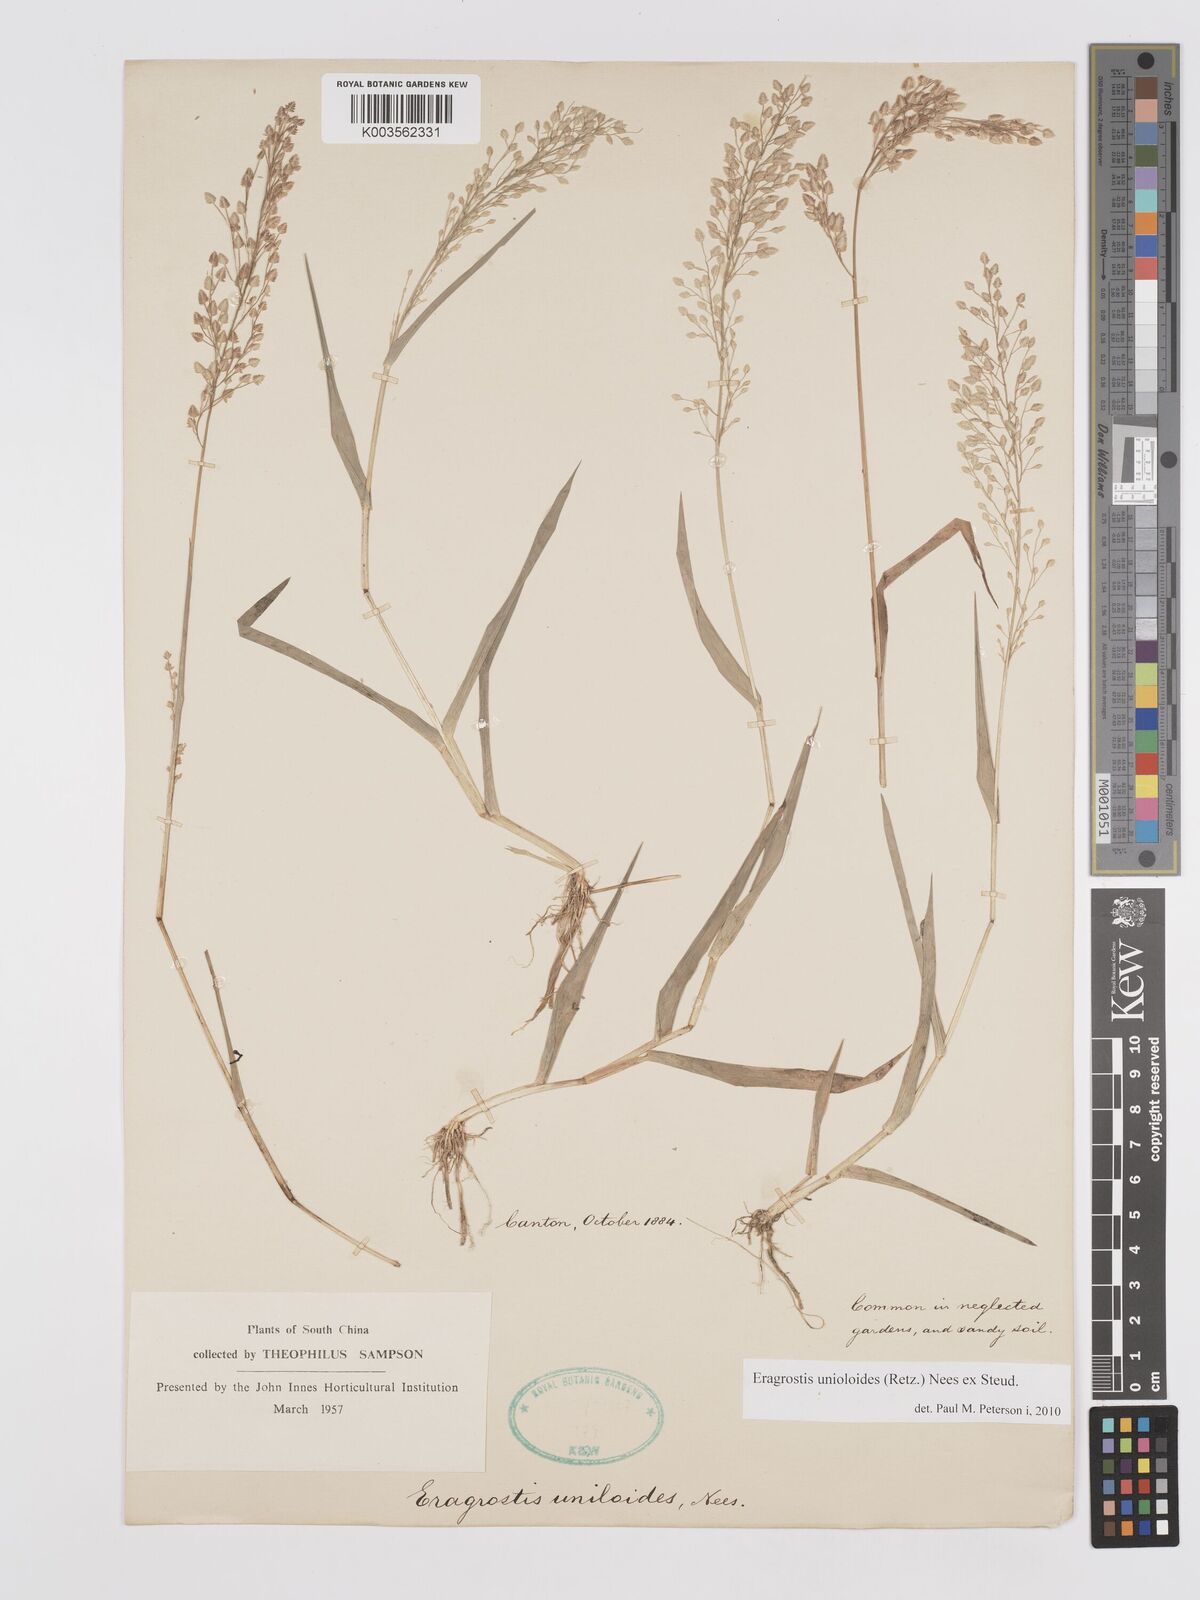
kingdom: Plantae
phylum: Tracheophyta
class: Liliopsida
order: Poales
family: Poaceae
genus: Eragrostis
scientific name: Eragrostis unioloides
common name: Chinese lovegrass
